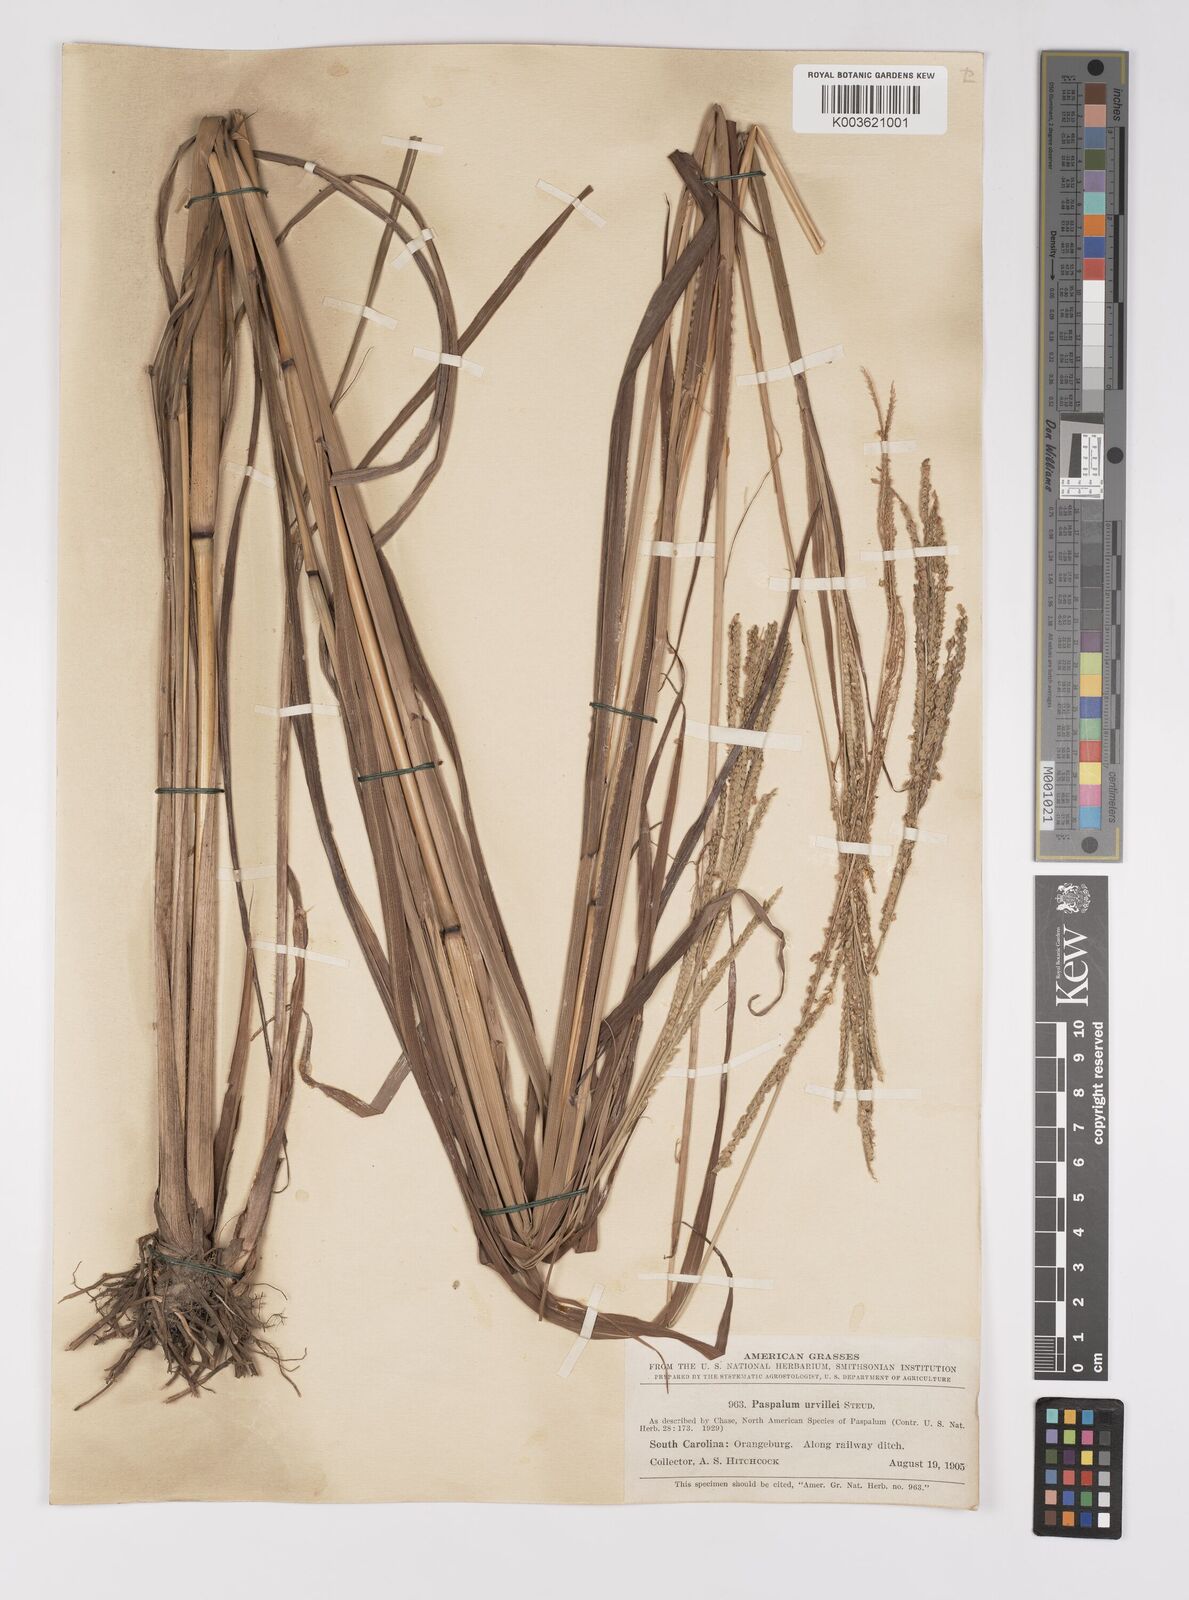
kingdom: Plantae
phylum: Tracheophyta
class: Liliopsida
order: Poales
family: Poaceae
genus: Paspalum
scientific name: Paspalum urvillei
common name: Vasey's grass
